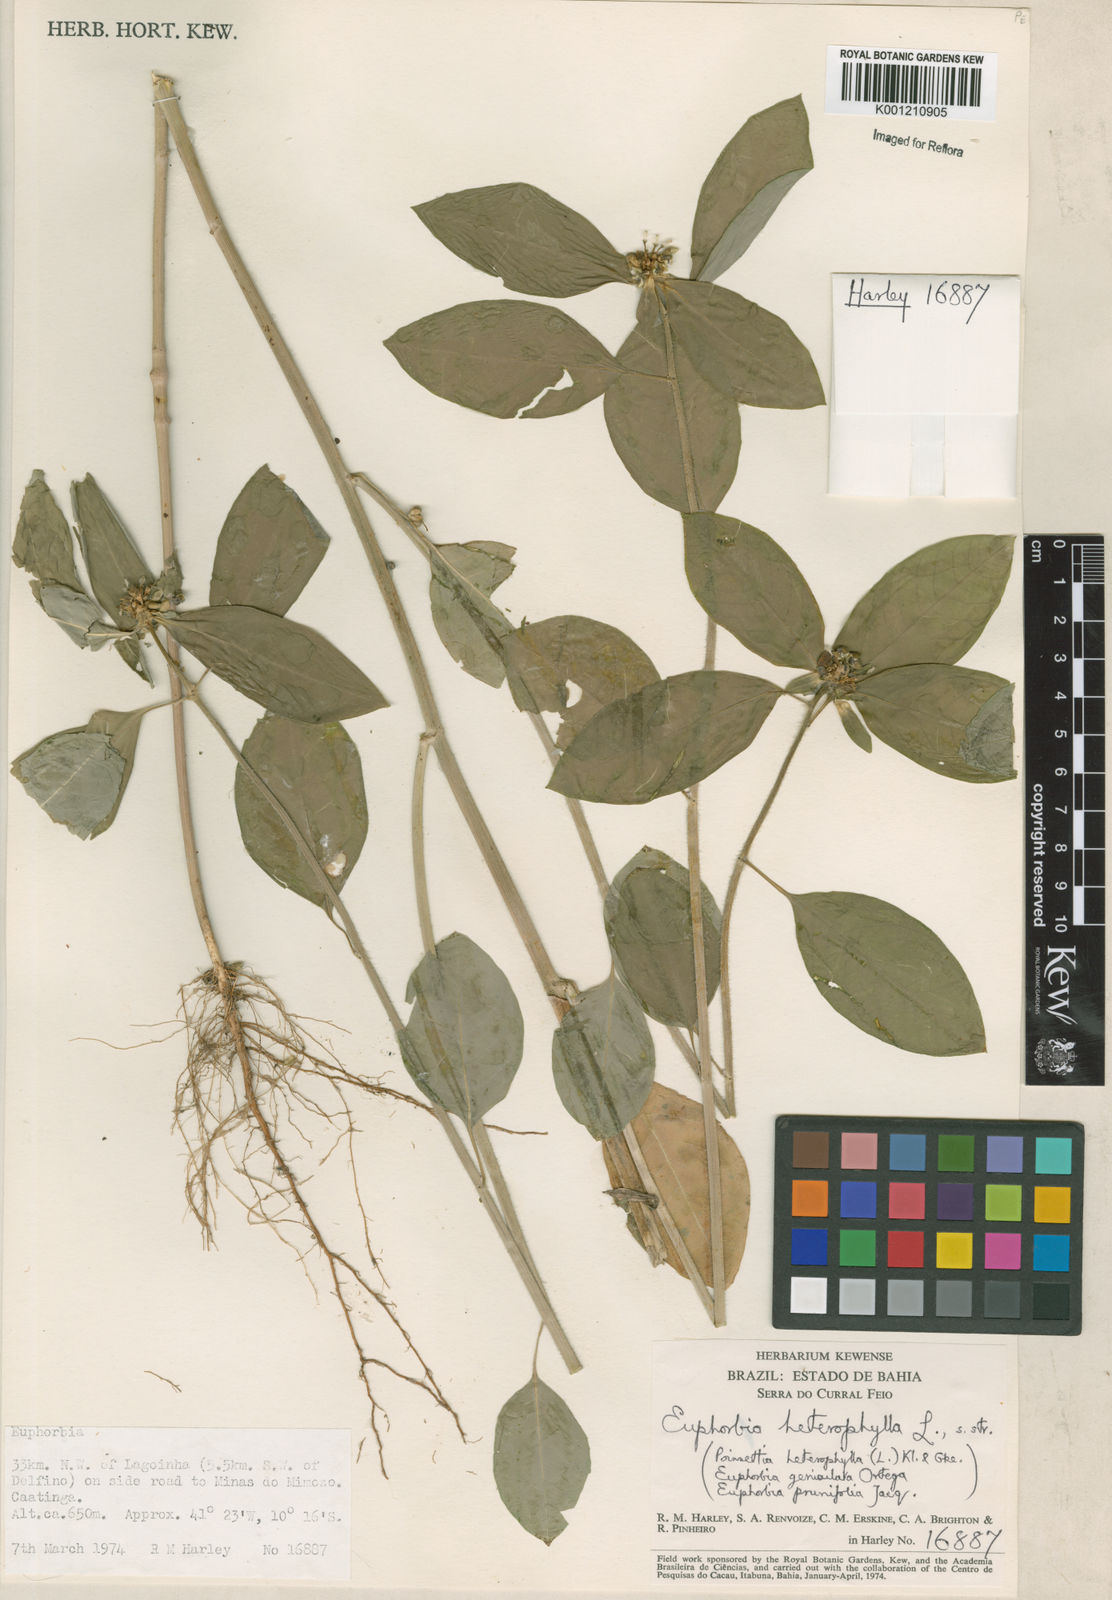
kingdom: Plantae
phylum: Tracheophyta
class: Magnoliopsida
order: Malpighiales
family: Euphorbiaceae
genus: Euphorbia
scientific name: Euphorbia heterophylla
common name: Mexican fireplant
